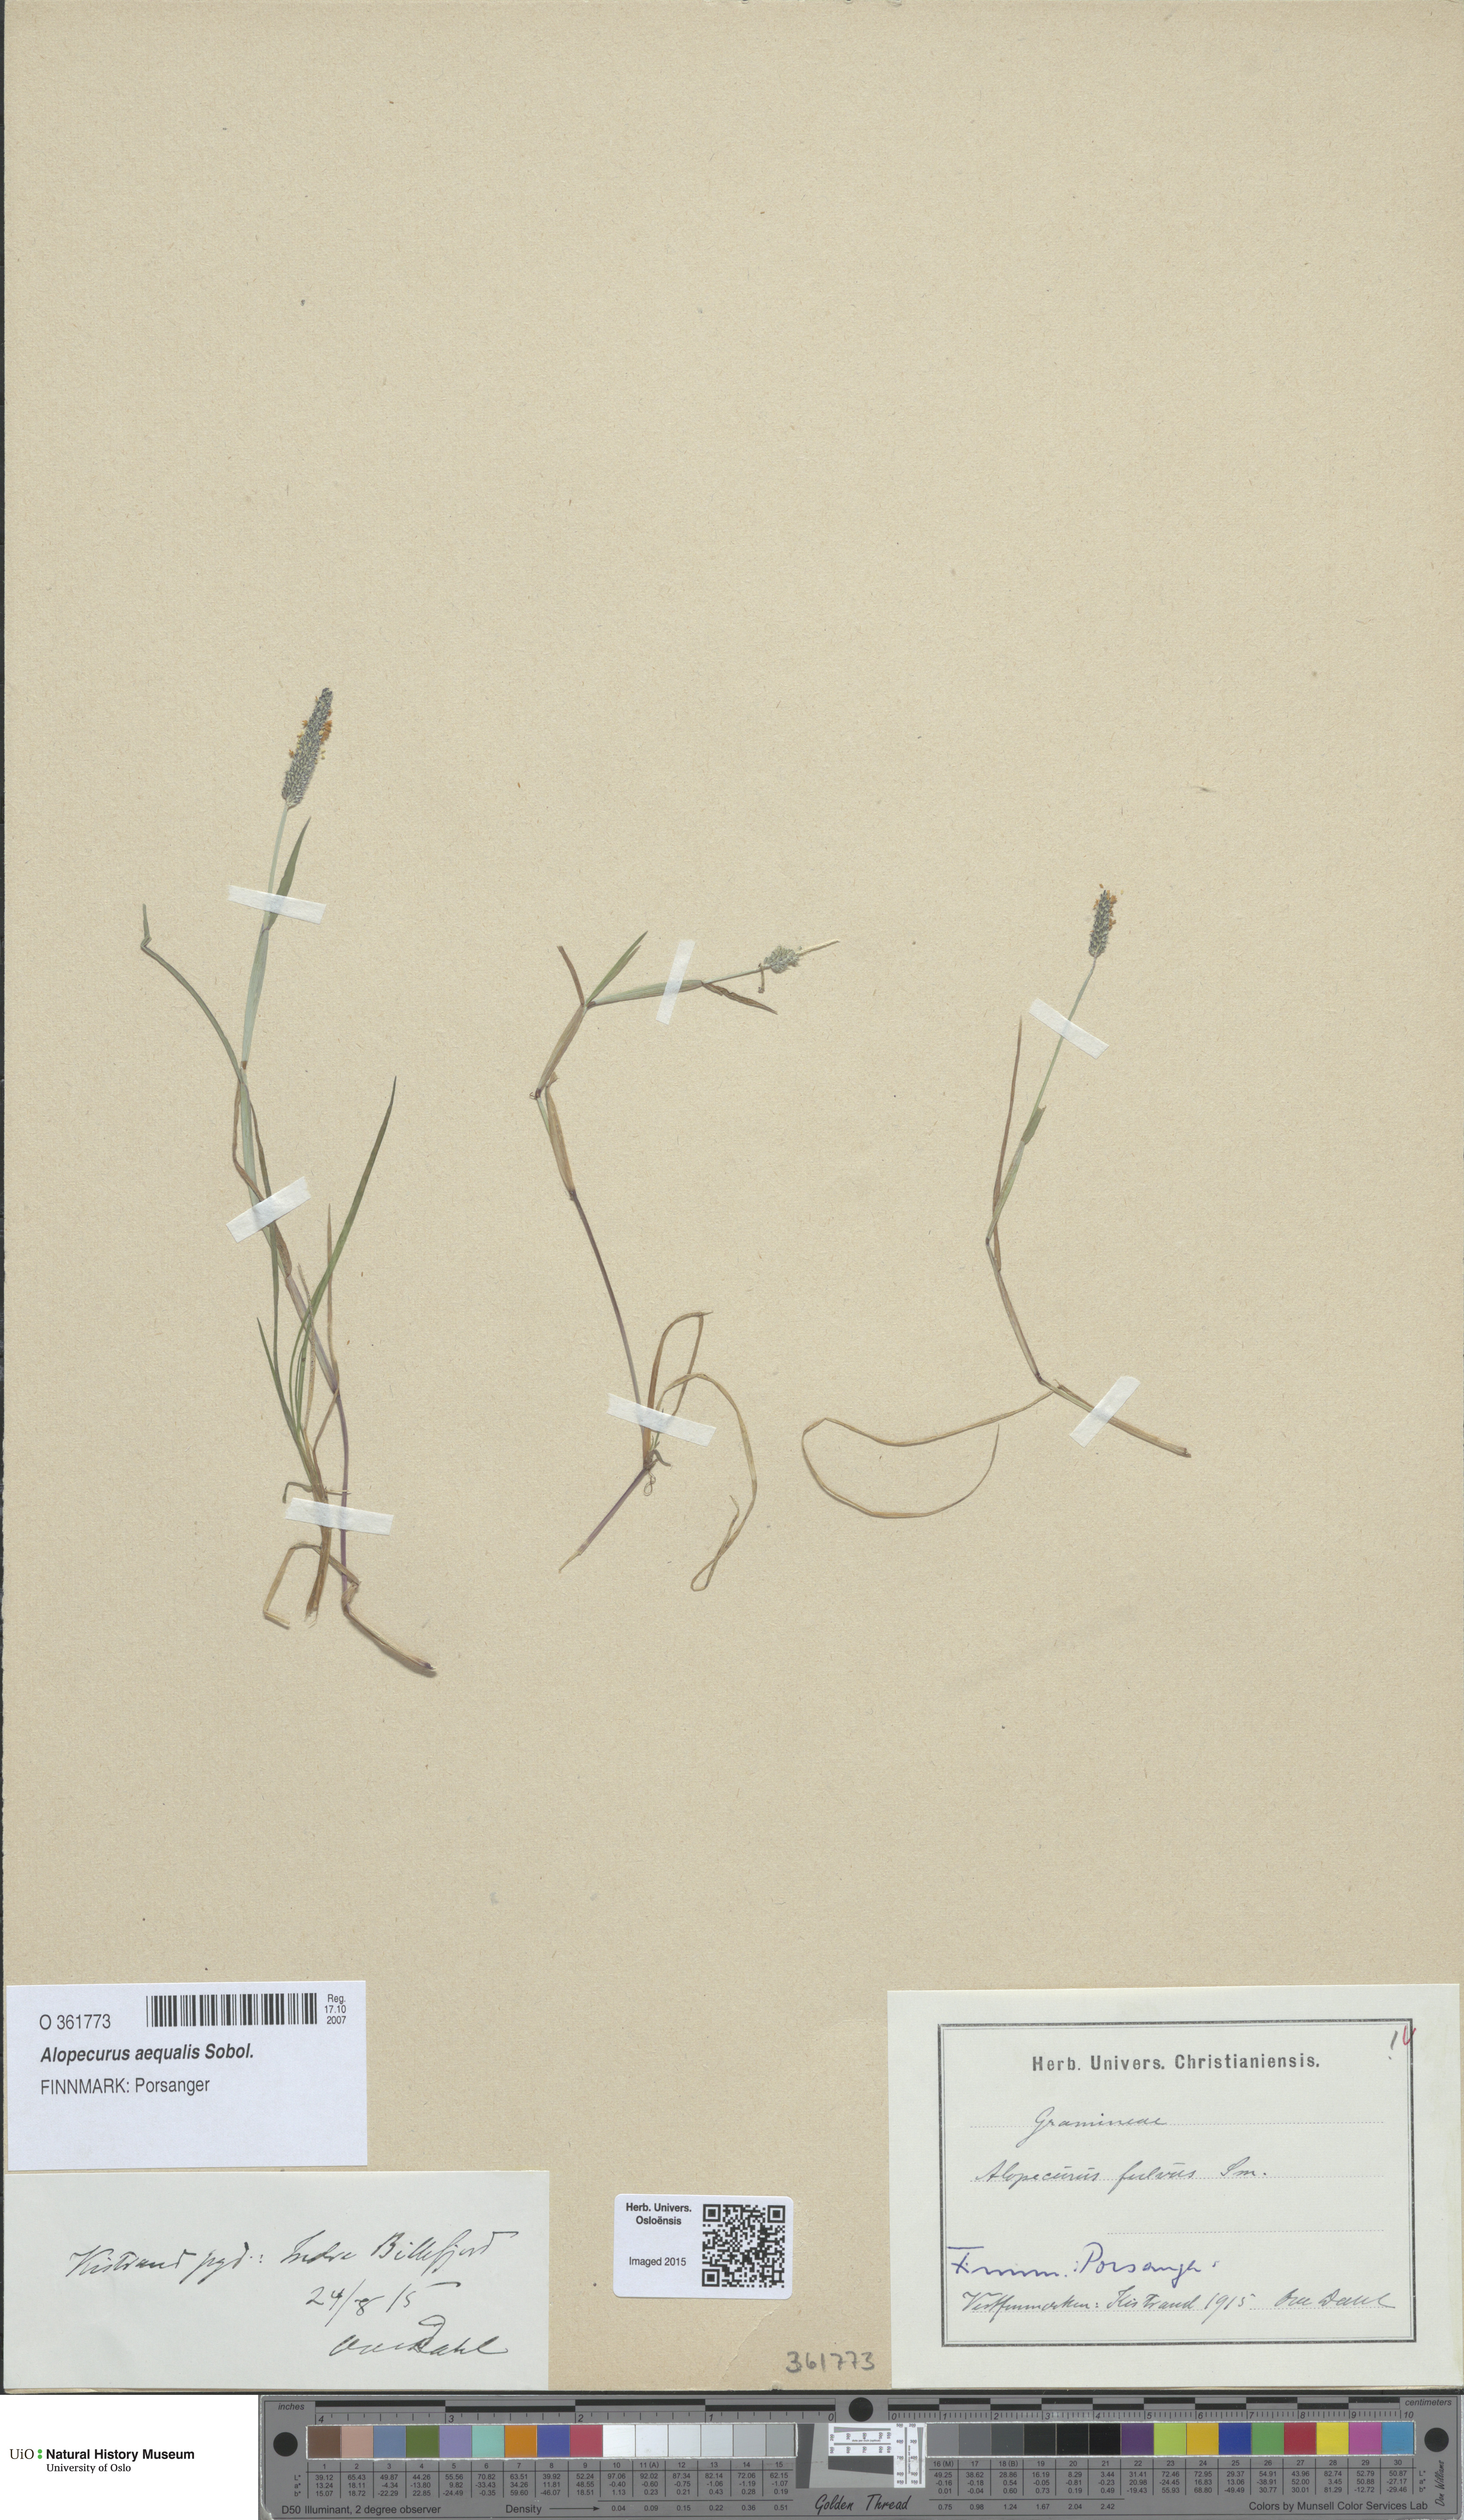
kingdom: Plantae
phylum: Tracheophyta
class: Liliopsida
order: Poales
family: Poaceae
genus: Alopecurus
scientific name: Alopecurus aequalis
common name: Orange foxtail
